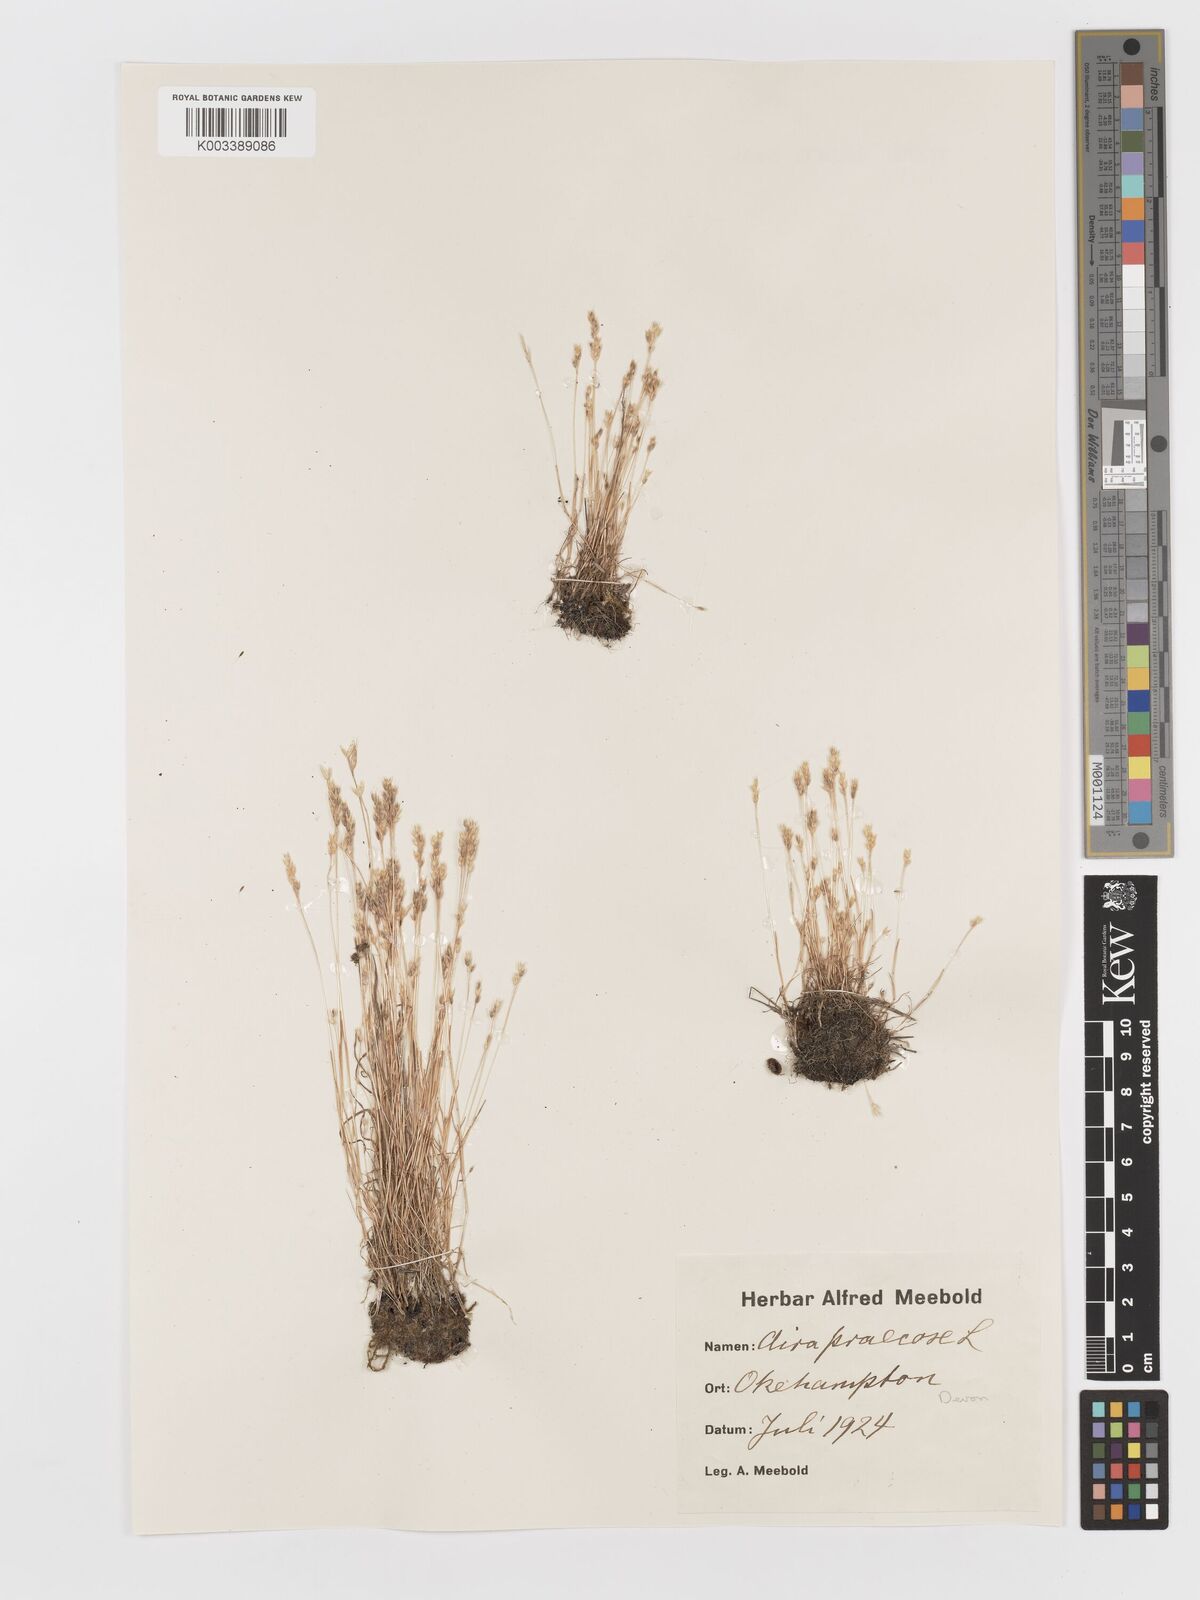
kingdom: Plantae
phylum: Tracheophyta
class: Liliopsida
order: Poales
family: Poaceae
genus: Aira
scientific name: Aira praecox
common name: Early hair-grass
